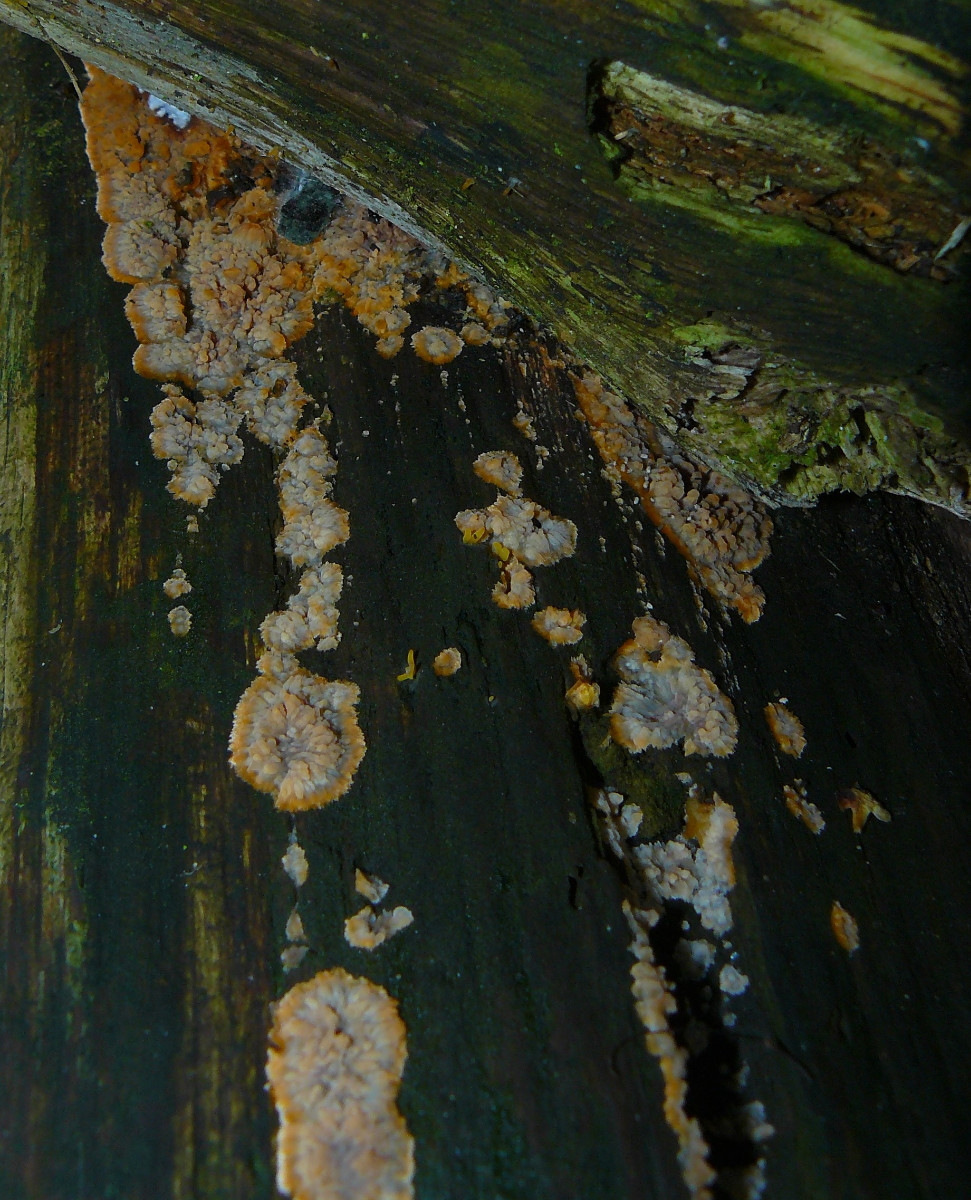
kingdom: Fungi
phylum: Basidiomycota
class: Agaricomycetes
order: Polyporales
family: Meruliaceae
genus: Phlebia
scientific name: Phlebia radiata
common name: stråle-åresvamp
